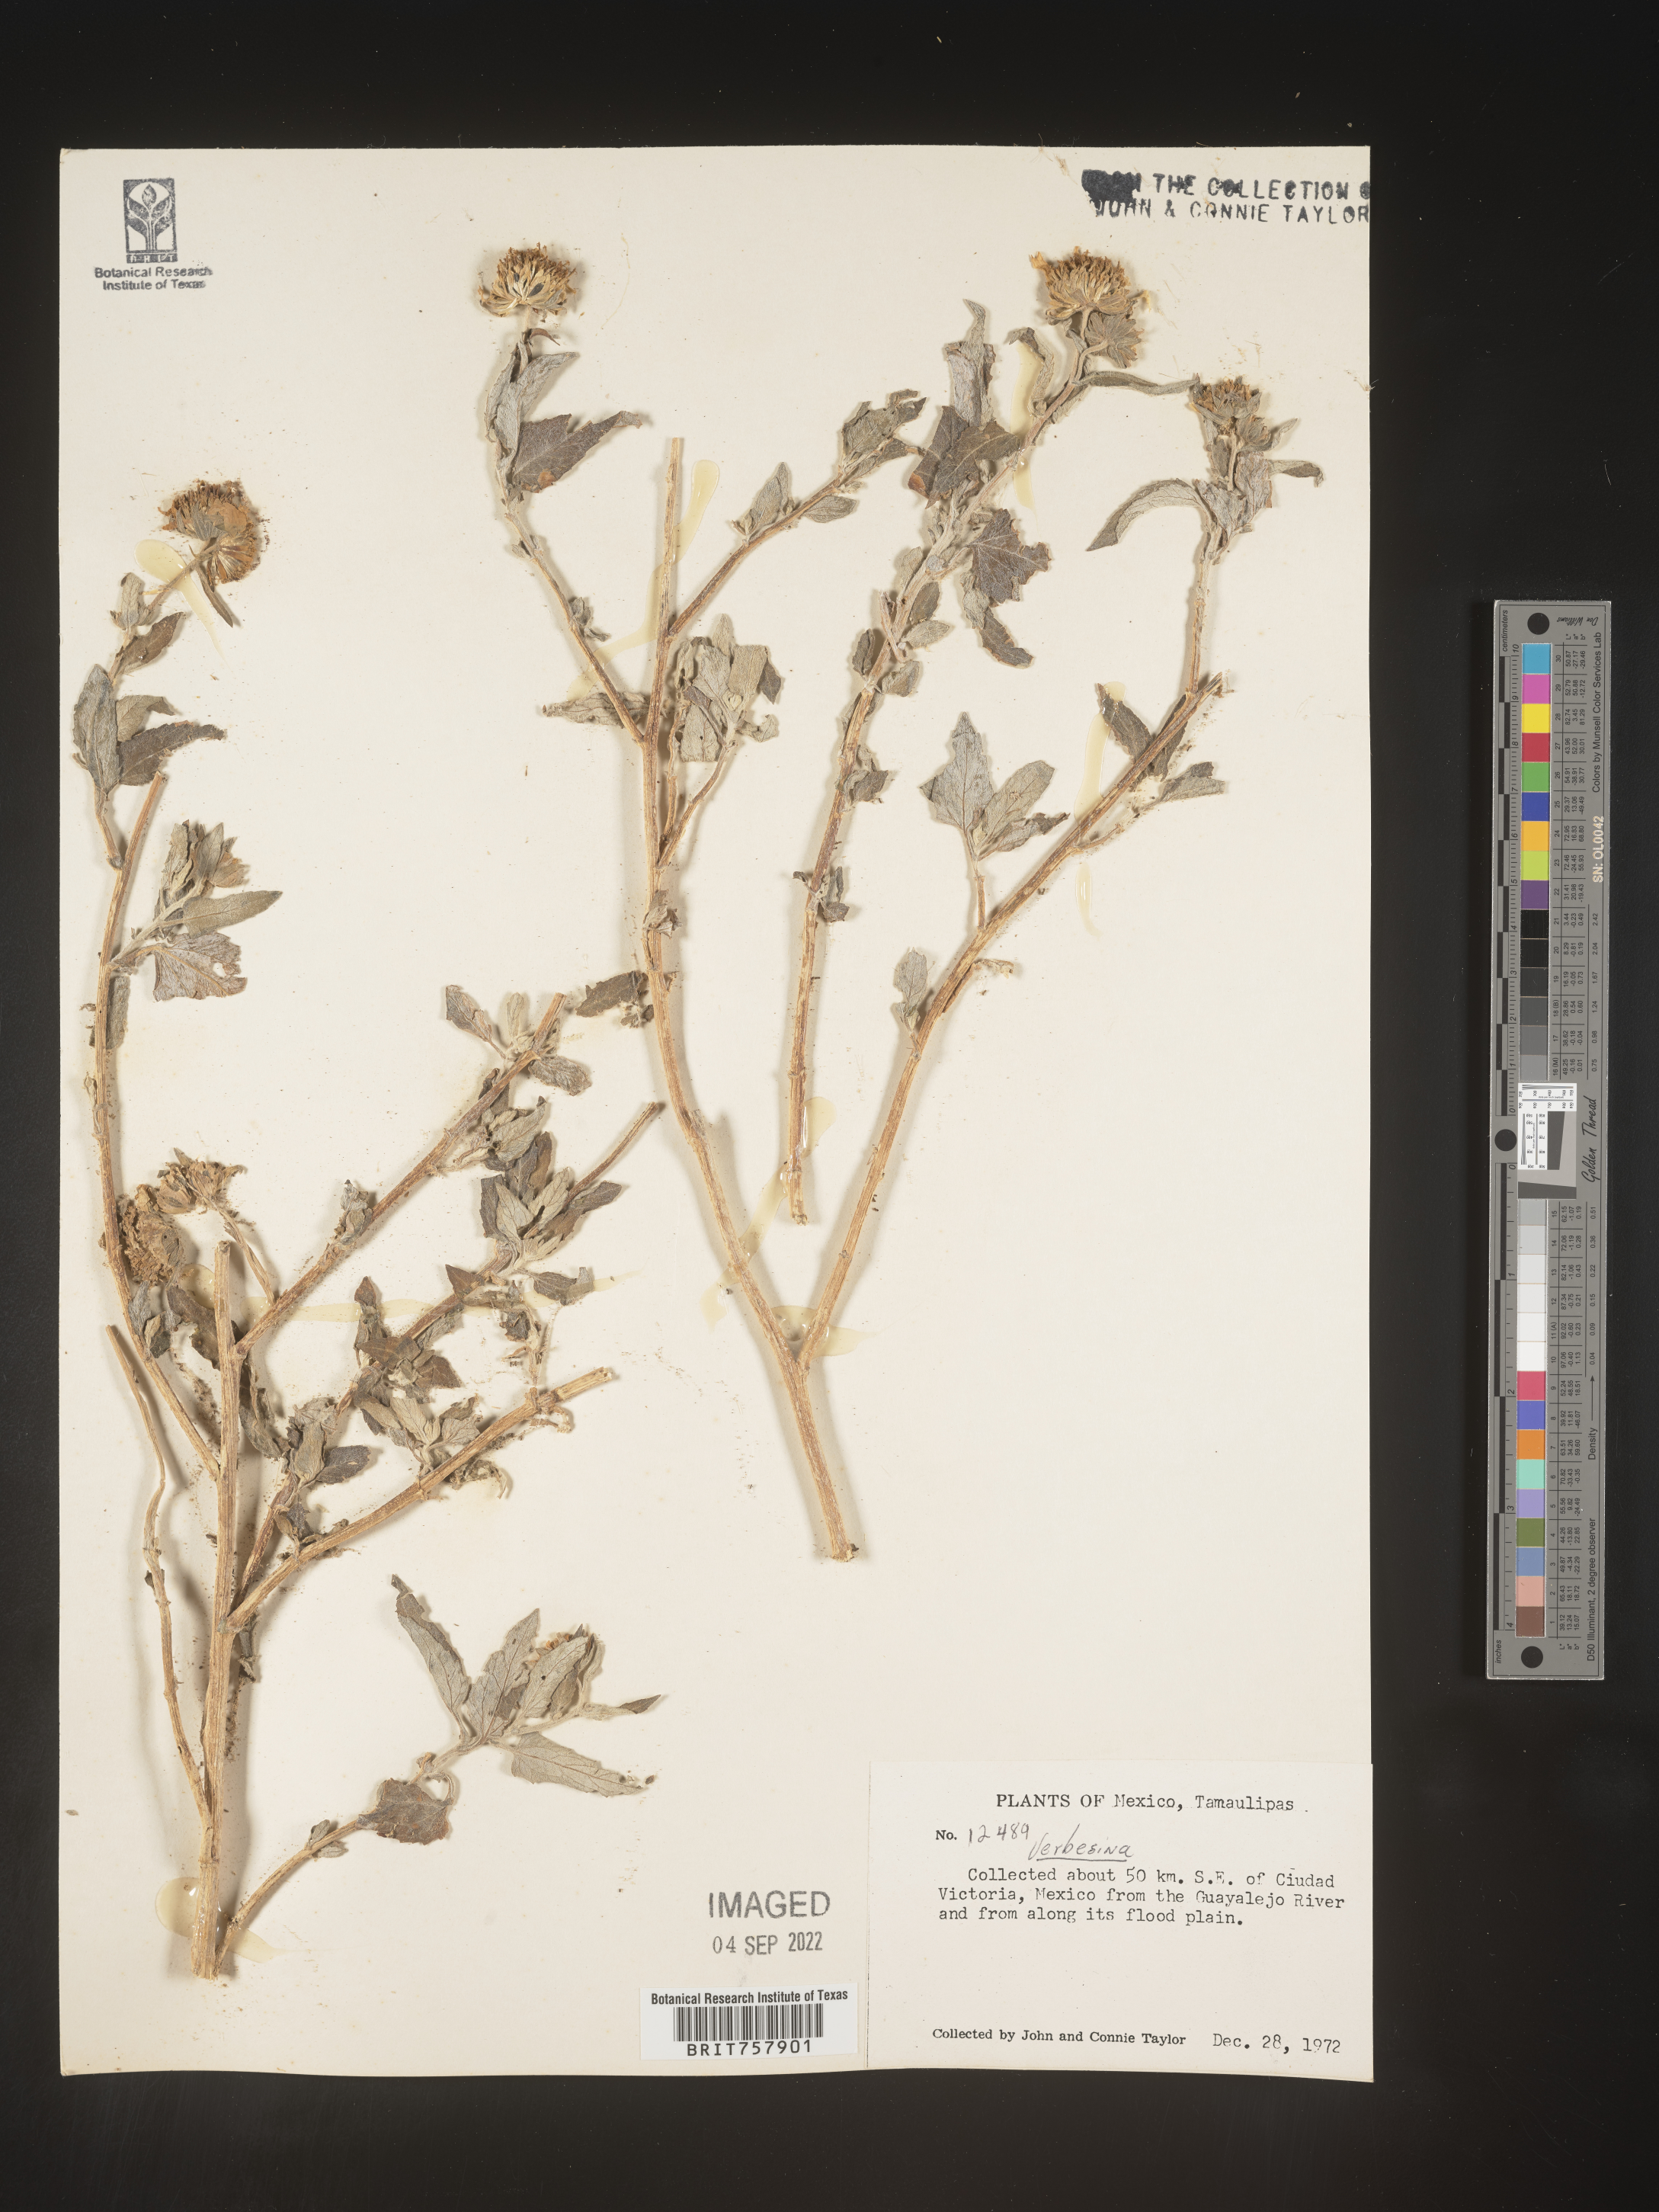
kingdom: Plantae
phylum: Tracheophyta
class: Magnoliopsida
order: Asterales
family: Asteraceae
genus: Verbesina
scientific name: Verbesina
